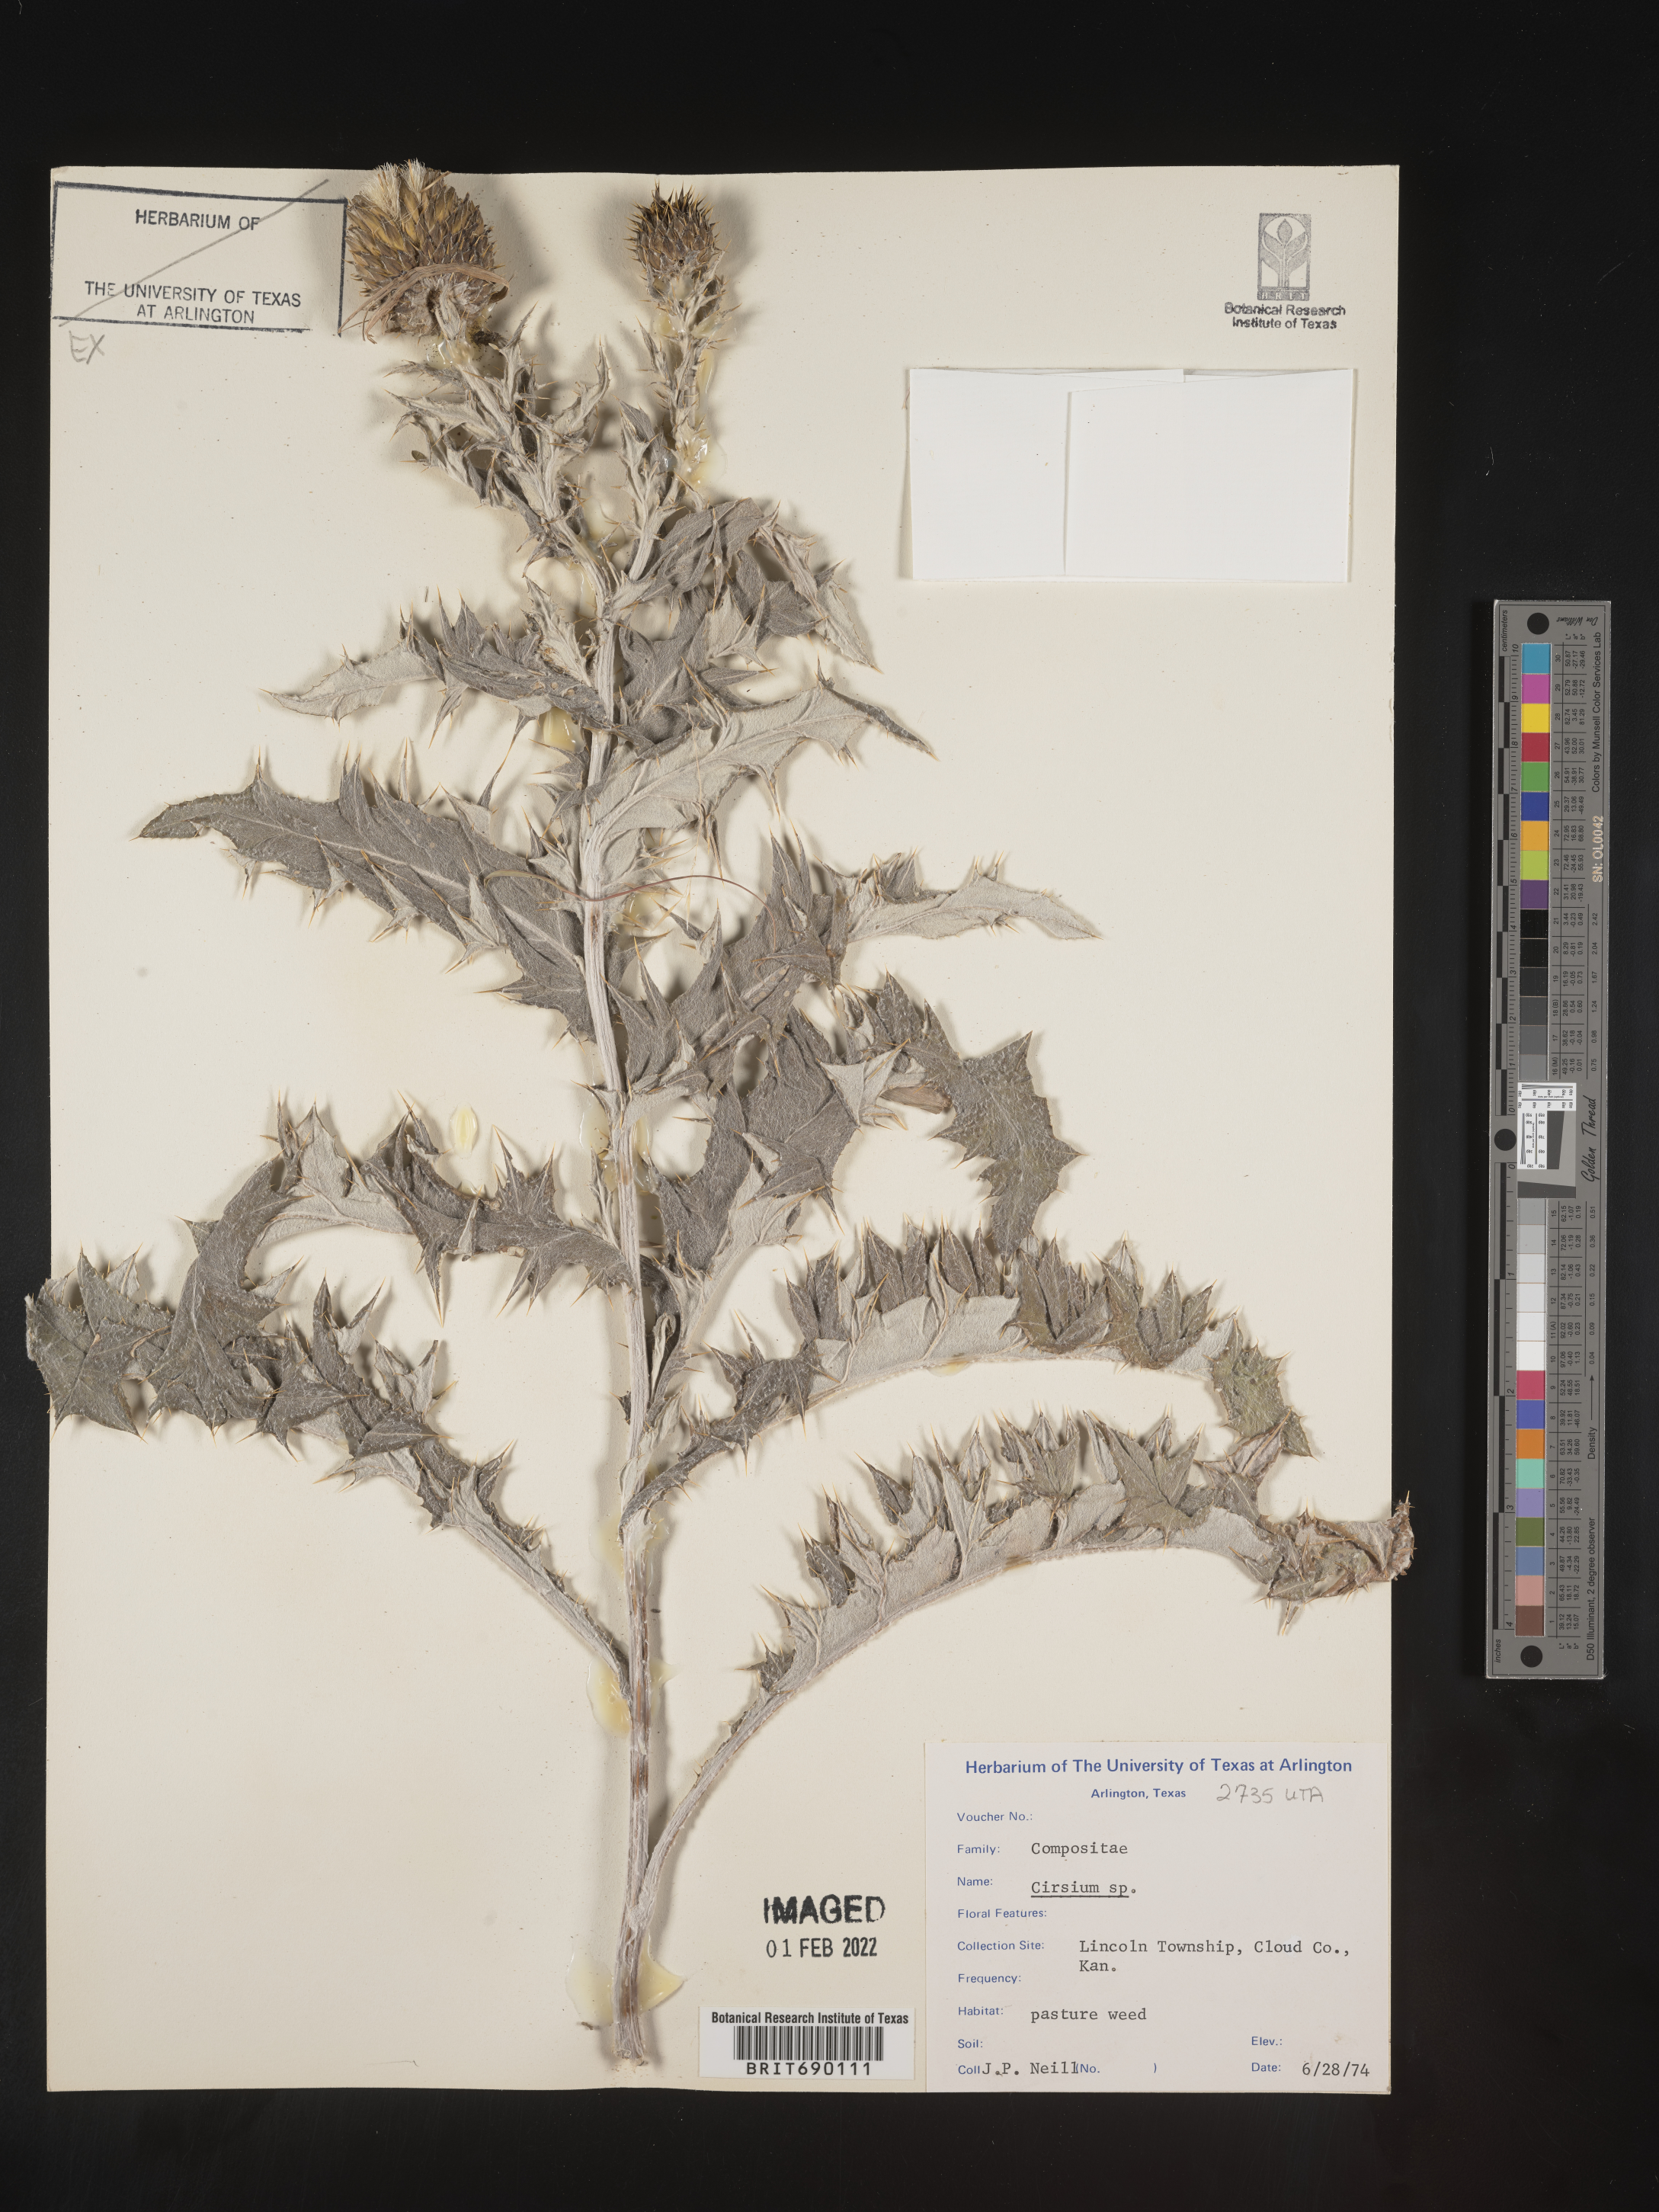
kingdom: Plantae
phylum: Tracheophyta
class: Magnoliopsida
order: Asterales
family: Asteraceae
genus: Cirsium
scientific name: Cirsium
